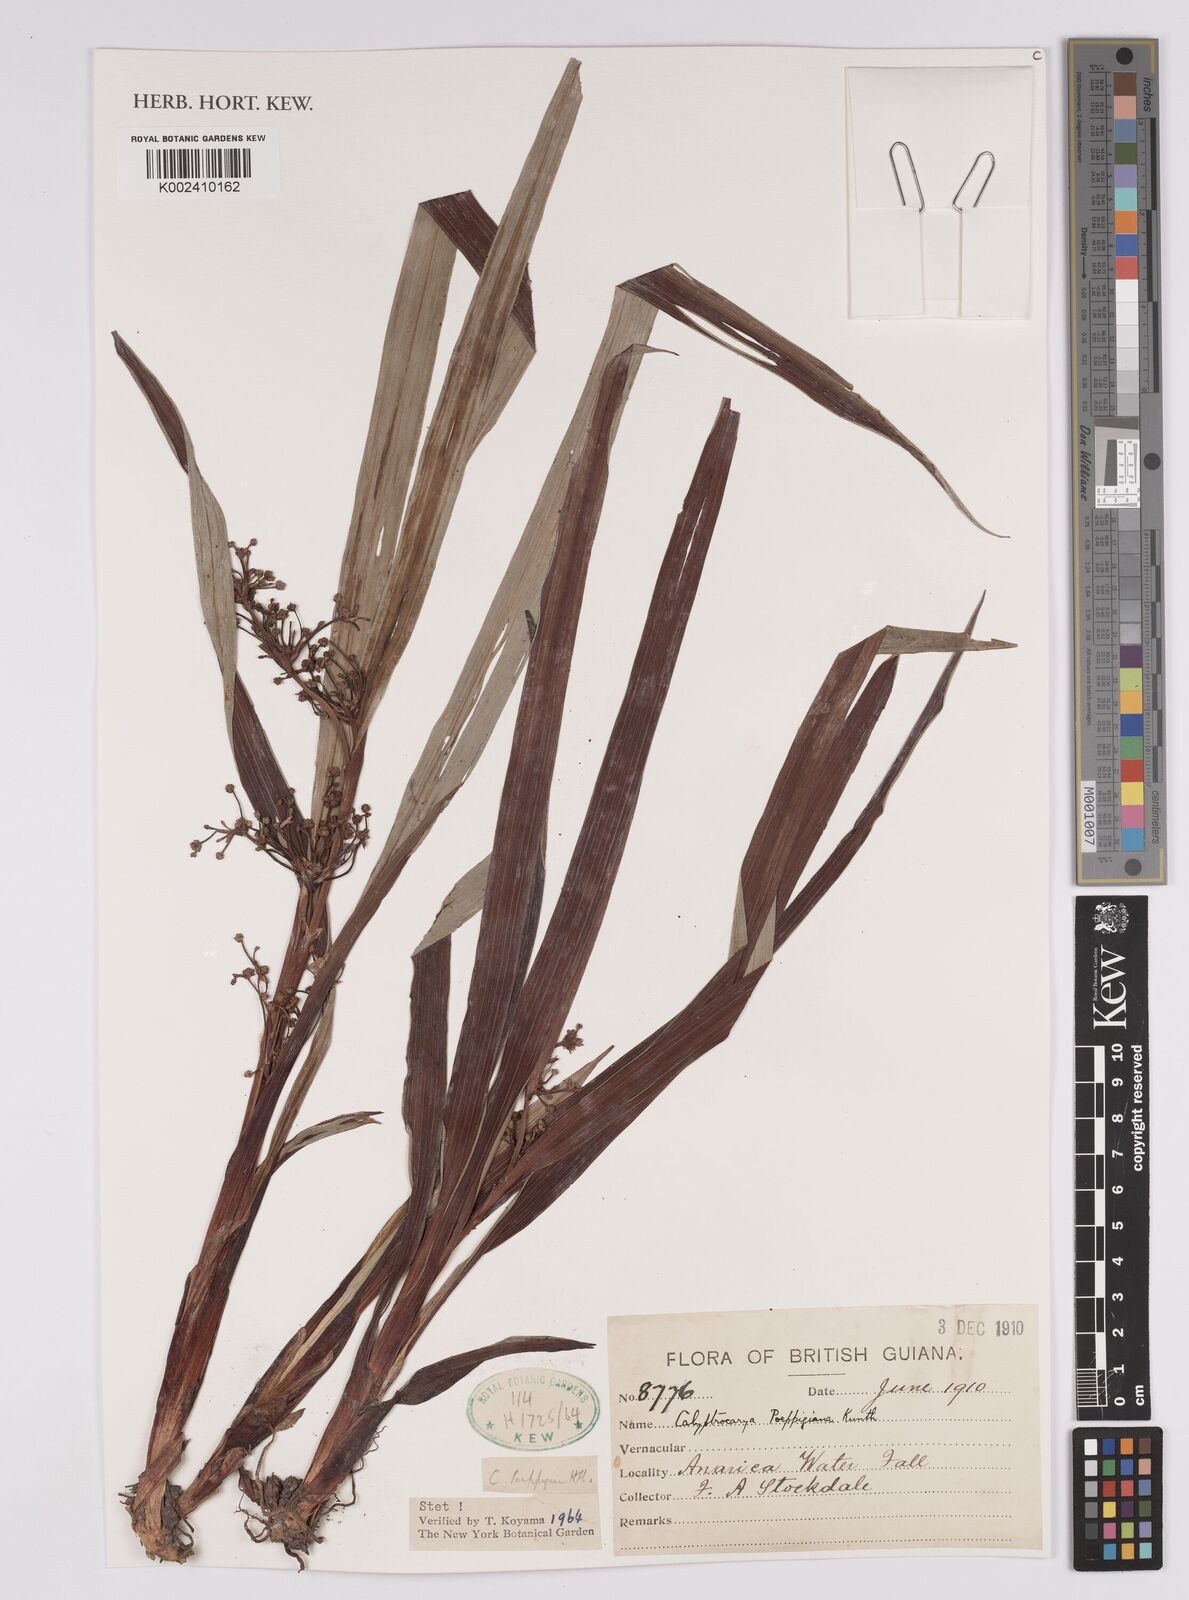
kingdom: Plantae
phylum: Tracheophyta
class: Liliopsida
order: Poales
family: Cyperaceae
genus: Calyptrocarya
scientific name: Calyptrocarya poeppigiana
